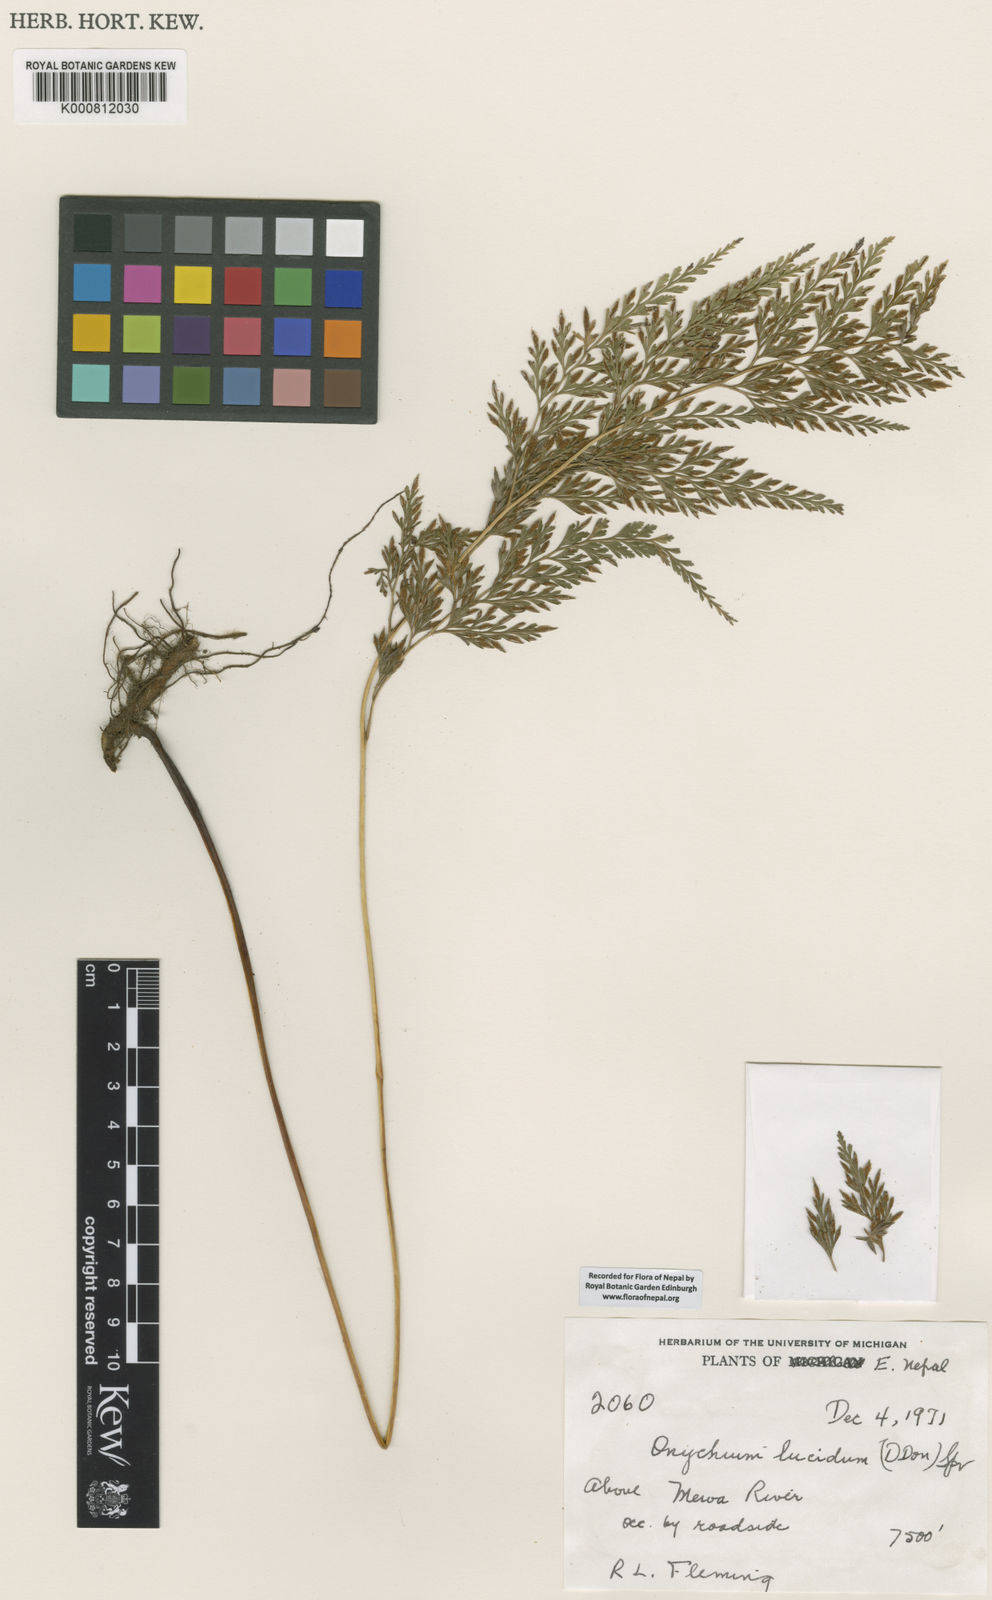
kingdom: Plantae
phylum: Tracheophyta
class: Polypodiopsida
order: Polypodiales
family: Pteridaceae
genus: Onychium
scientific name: Onychium lucidum
